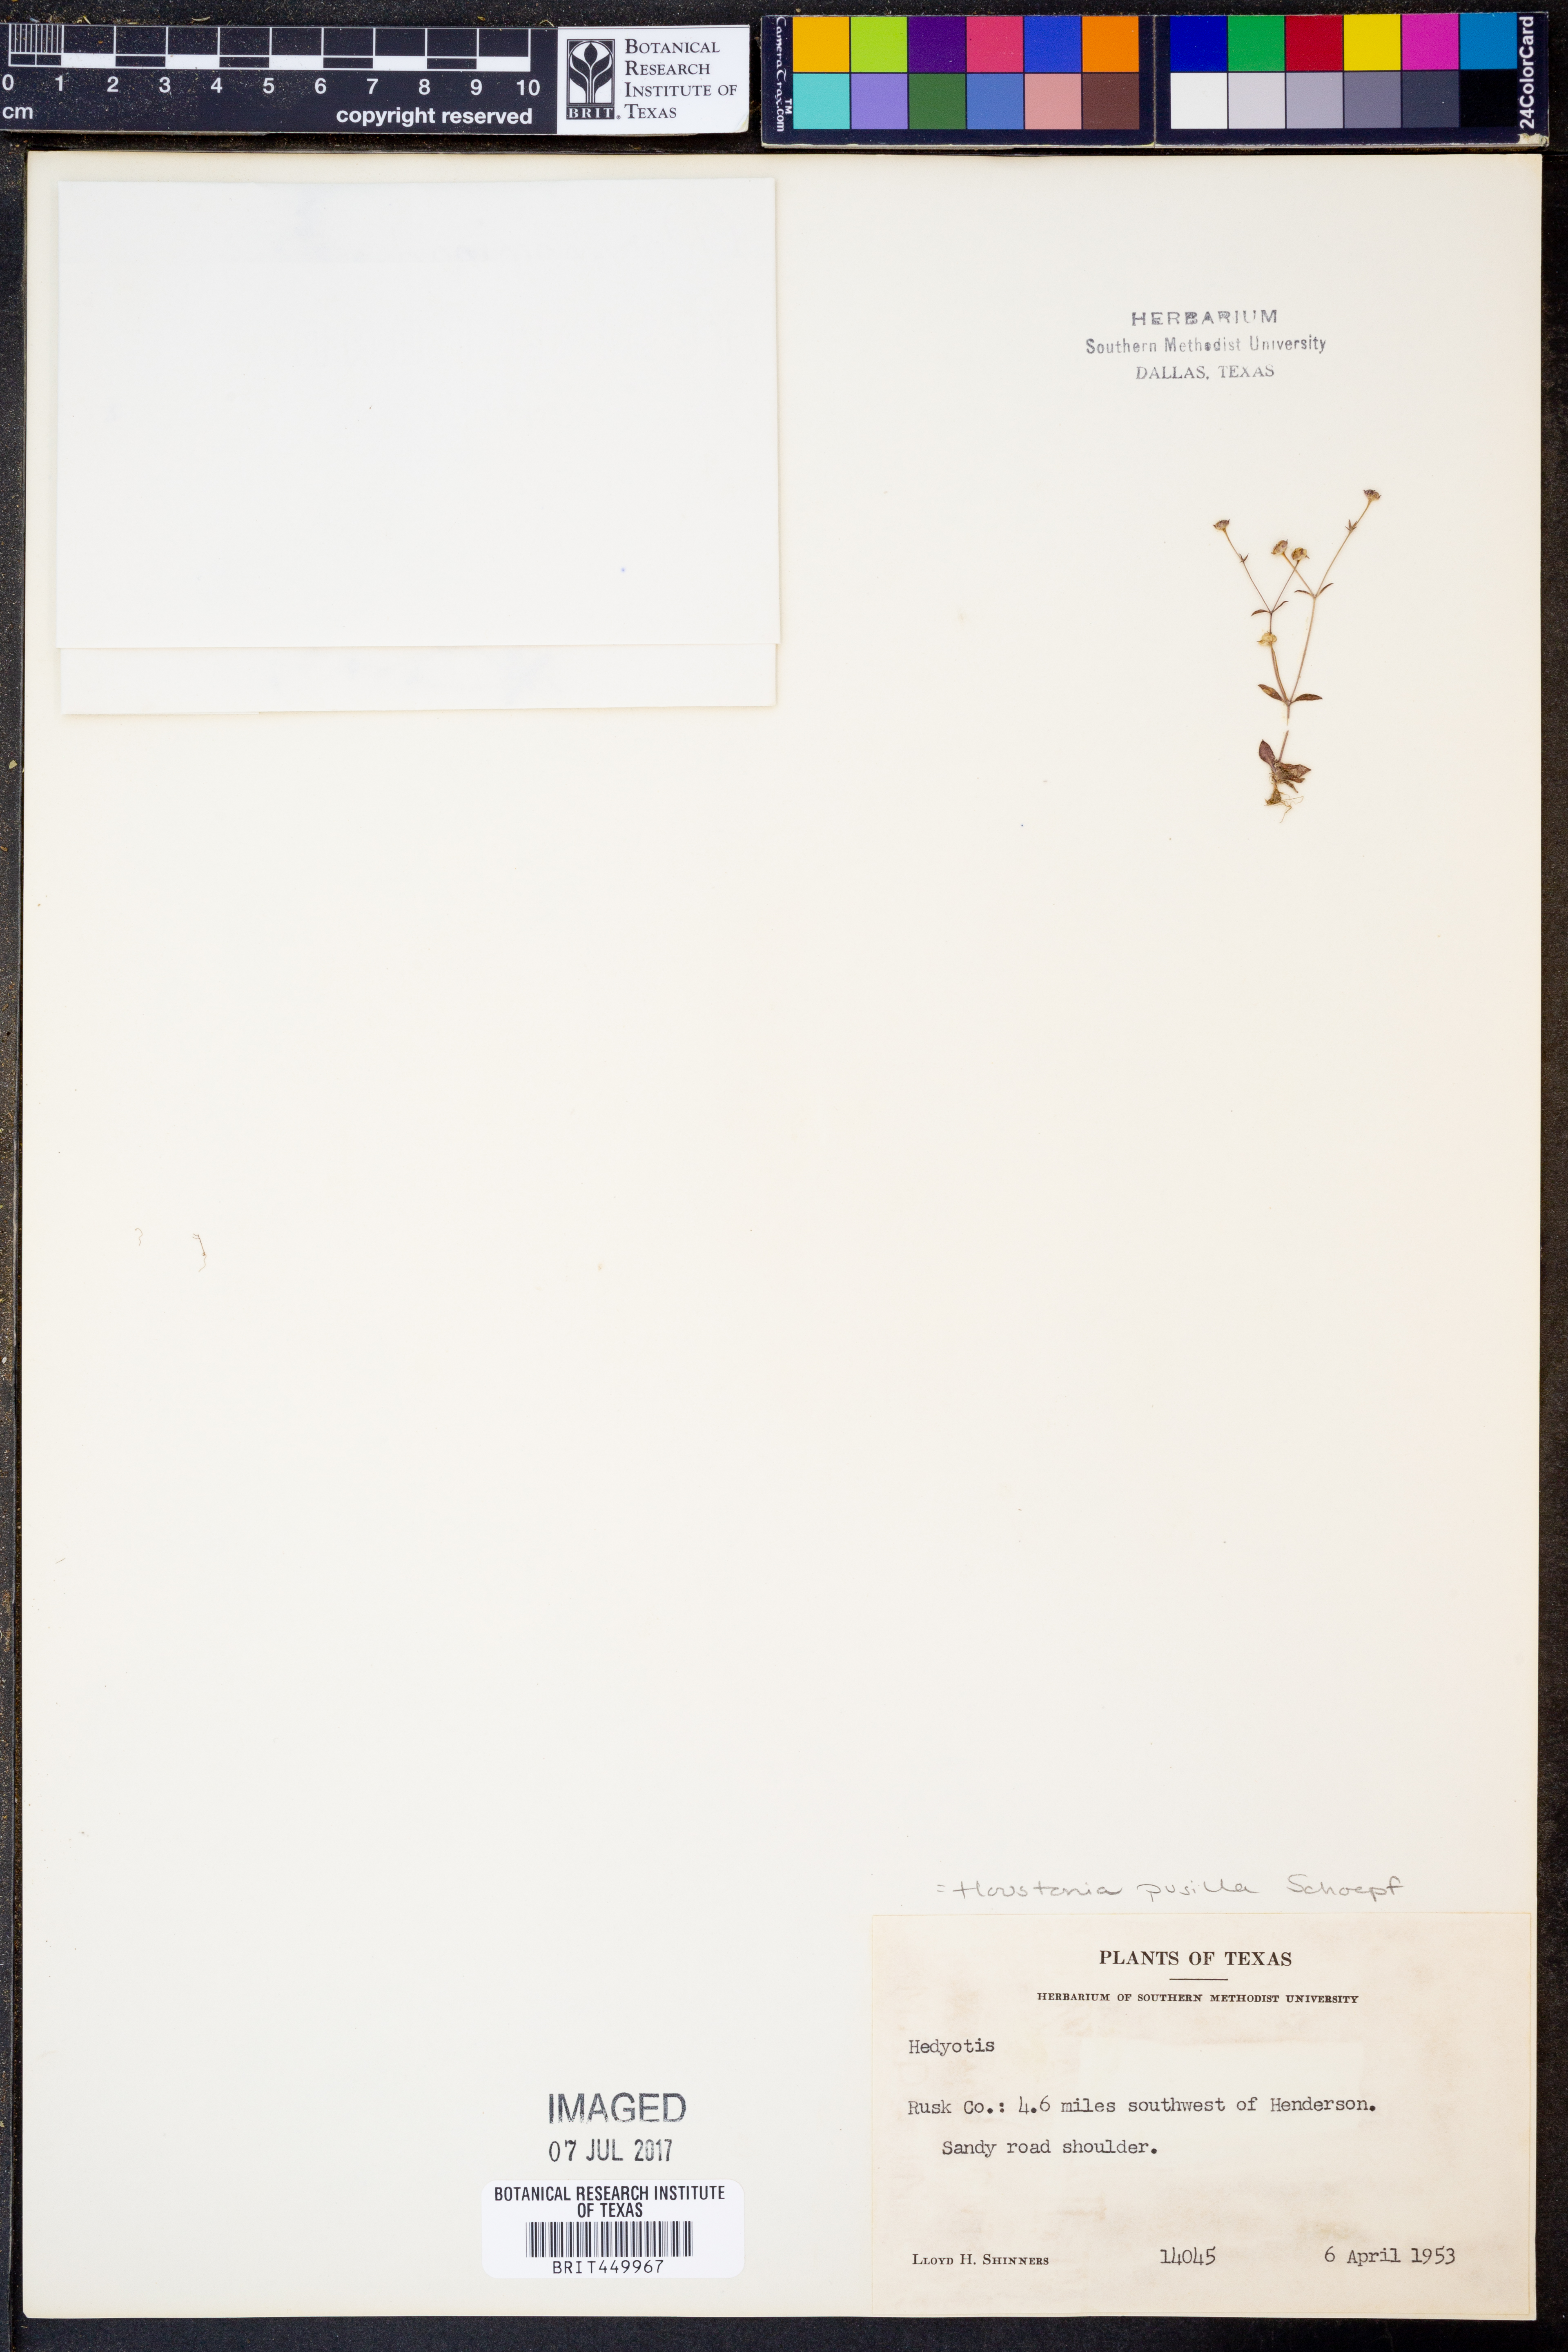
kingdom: Plantae
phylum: Tracheophyta
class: Magnoliopsida
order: Gentianales
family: Rubiaceae
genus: Houstonia
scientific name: Houstonia pusilla
